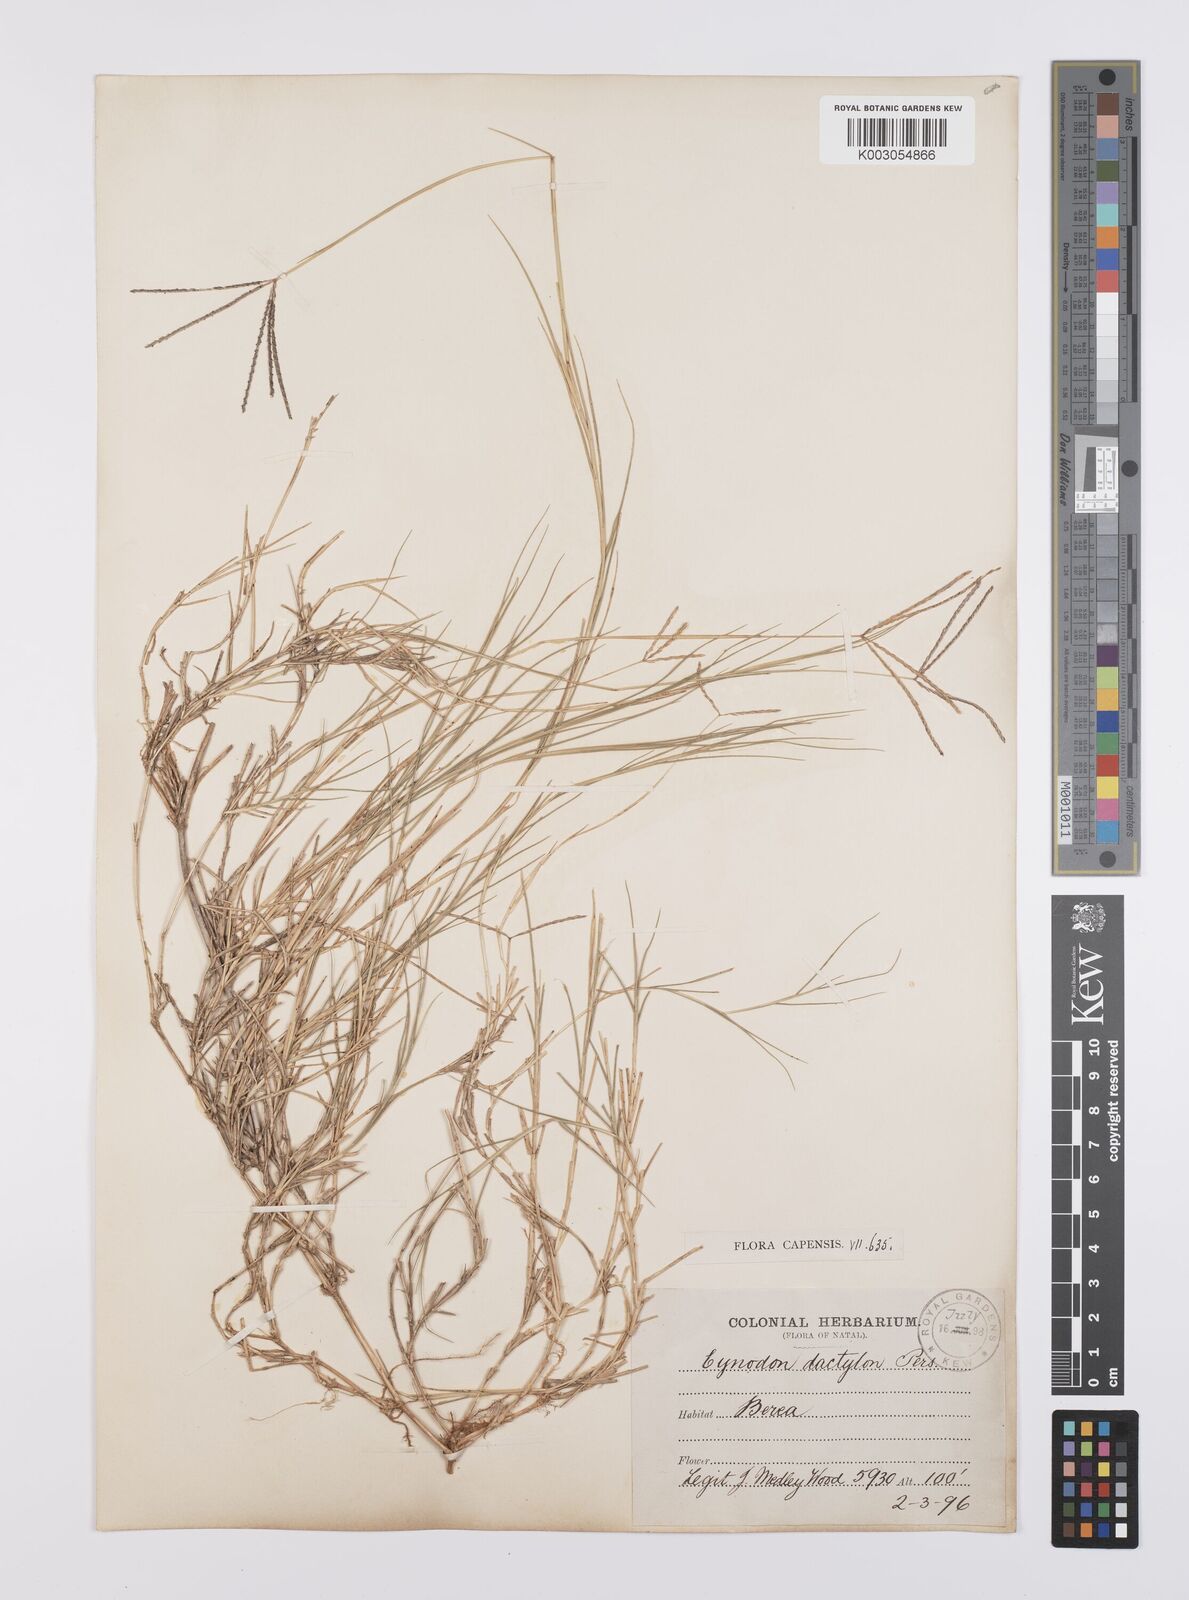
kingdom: Plantae
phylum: Tracheophyta
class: Liliopsida
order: Poales
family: Poaceae
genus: Cynodon
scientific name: Cynodon dactylon
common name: Bermuda grass
